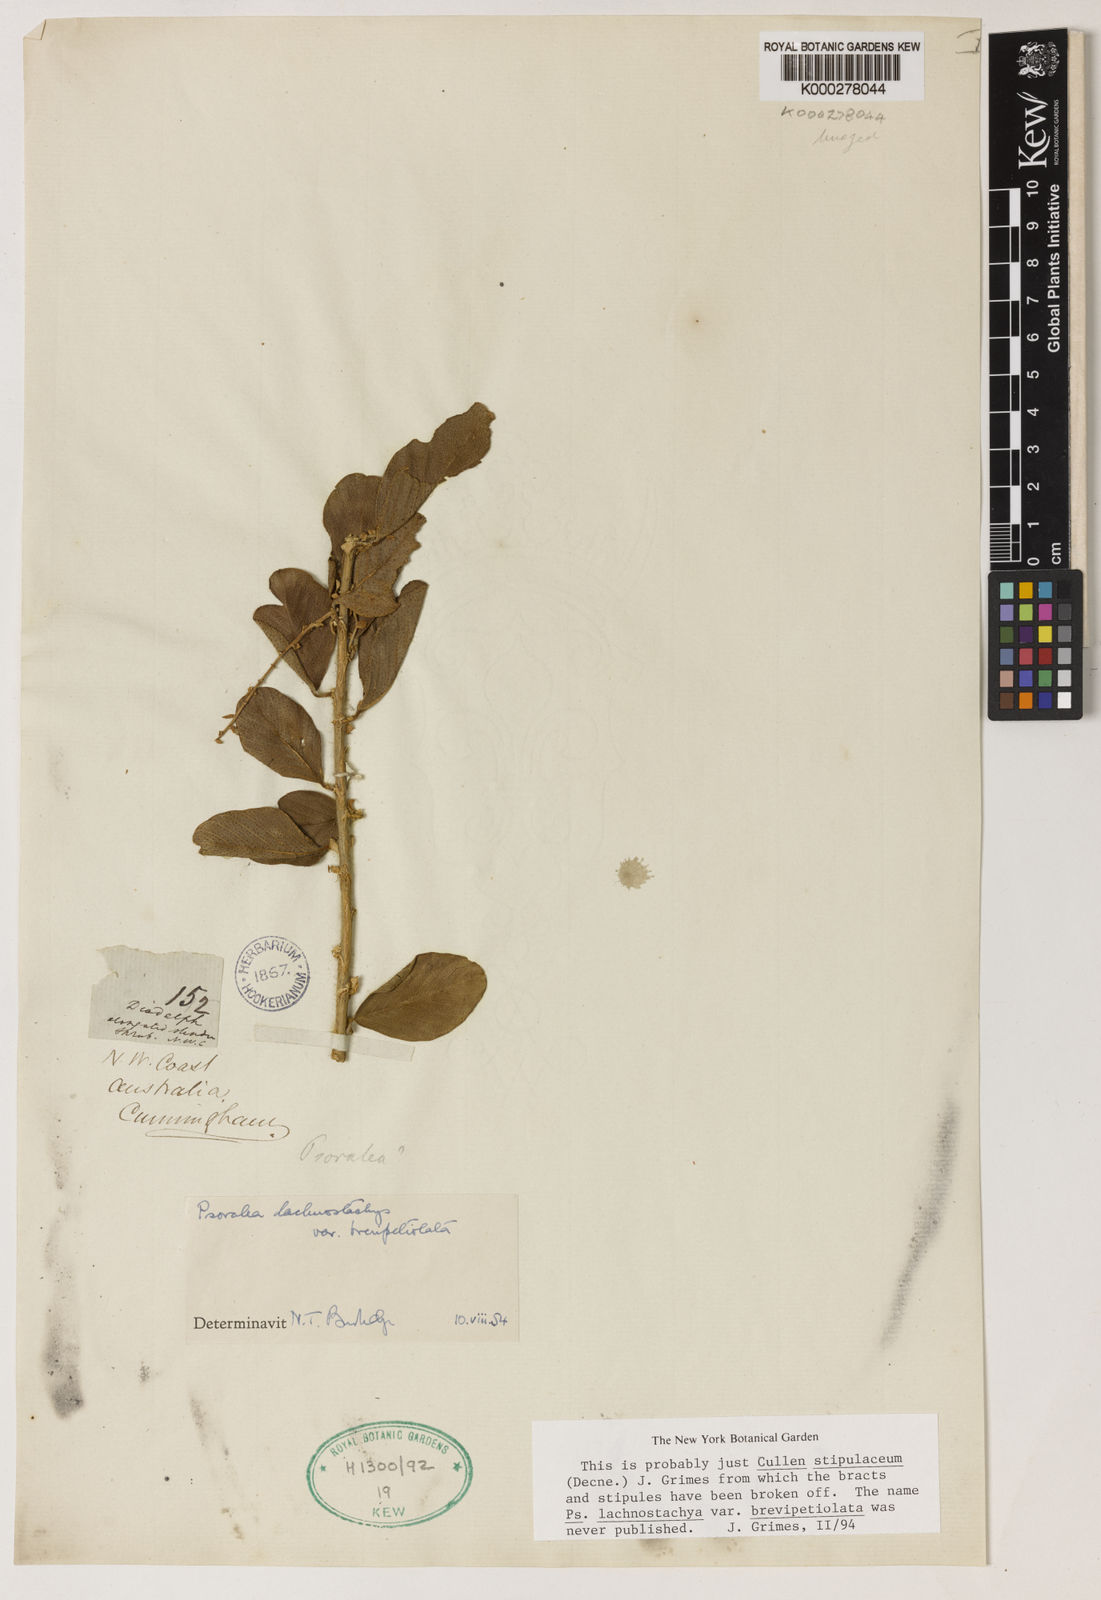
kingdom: Plantae
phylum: Tracheophyta
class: Magnoliopsida
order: Fabales
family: Fabaceae
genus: Cullen
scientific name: Cullen stipulaceum
